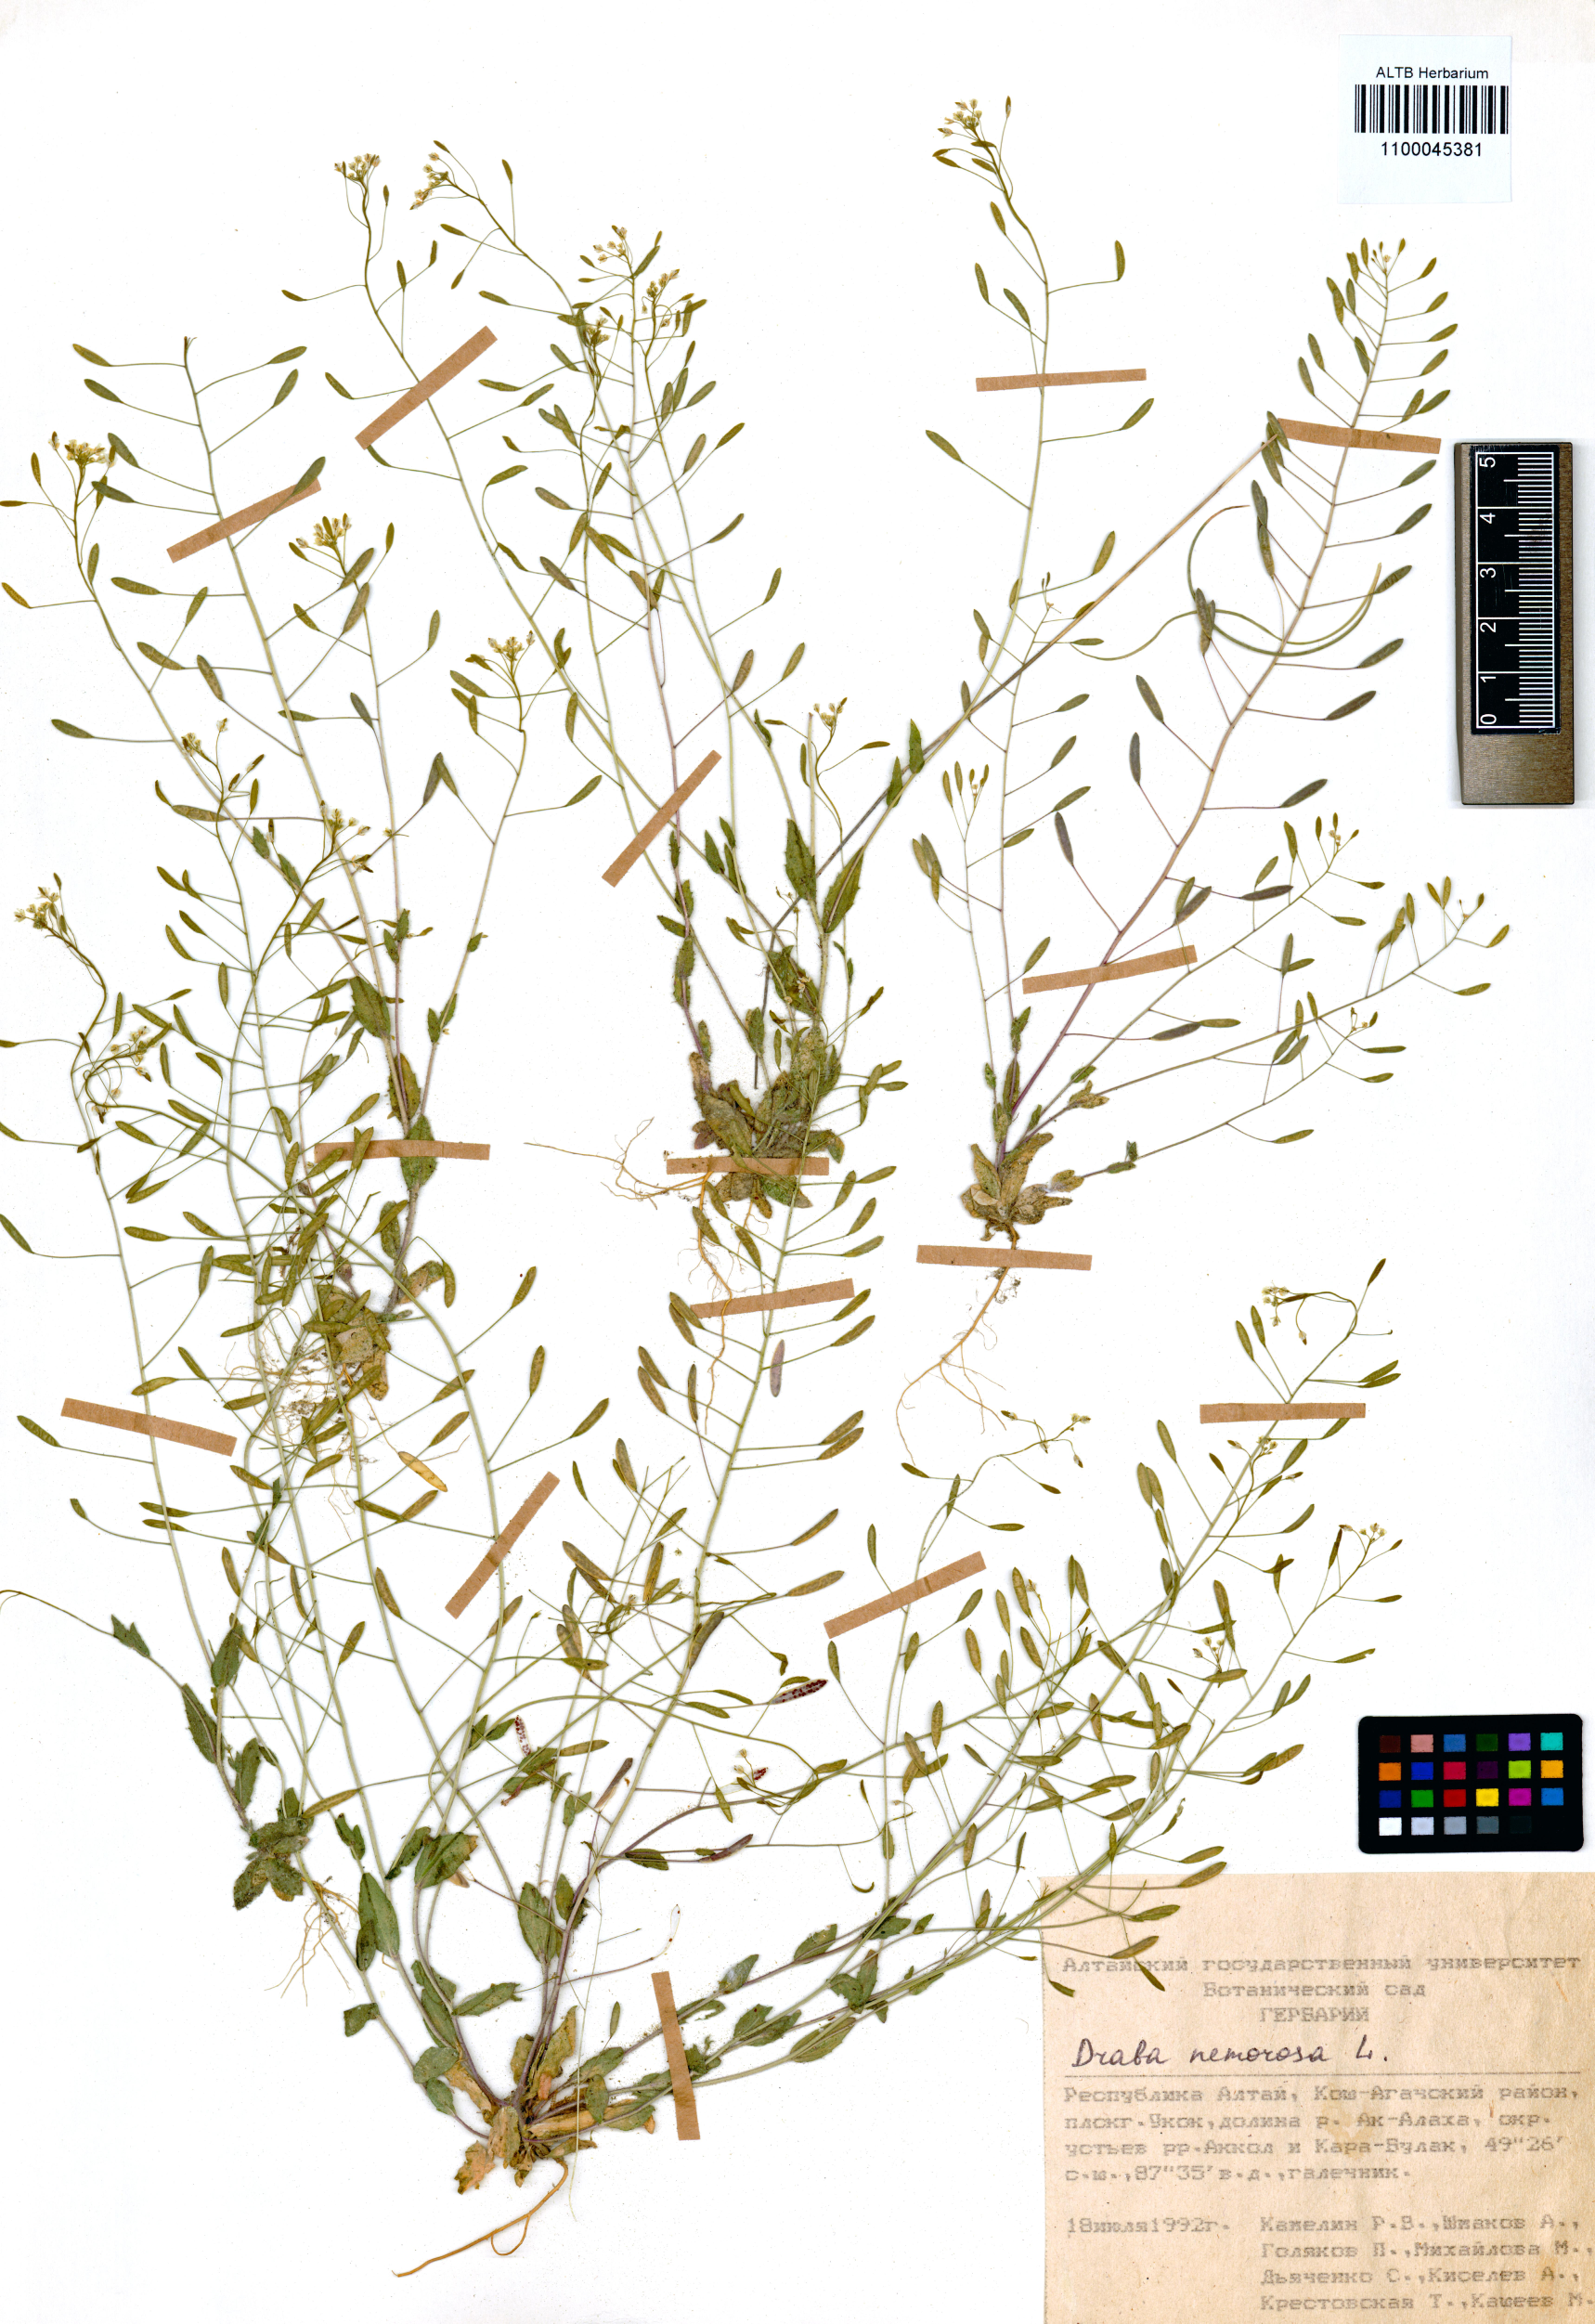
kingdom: Plantae
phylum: Tracheophyta
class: Magnoliopsida
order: Brassicales
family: Brassicaceae
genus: Draba
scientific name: Draba nemorosa
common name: Wood whitlow-grass
